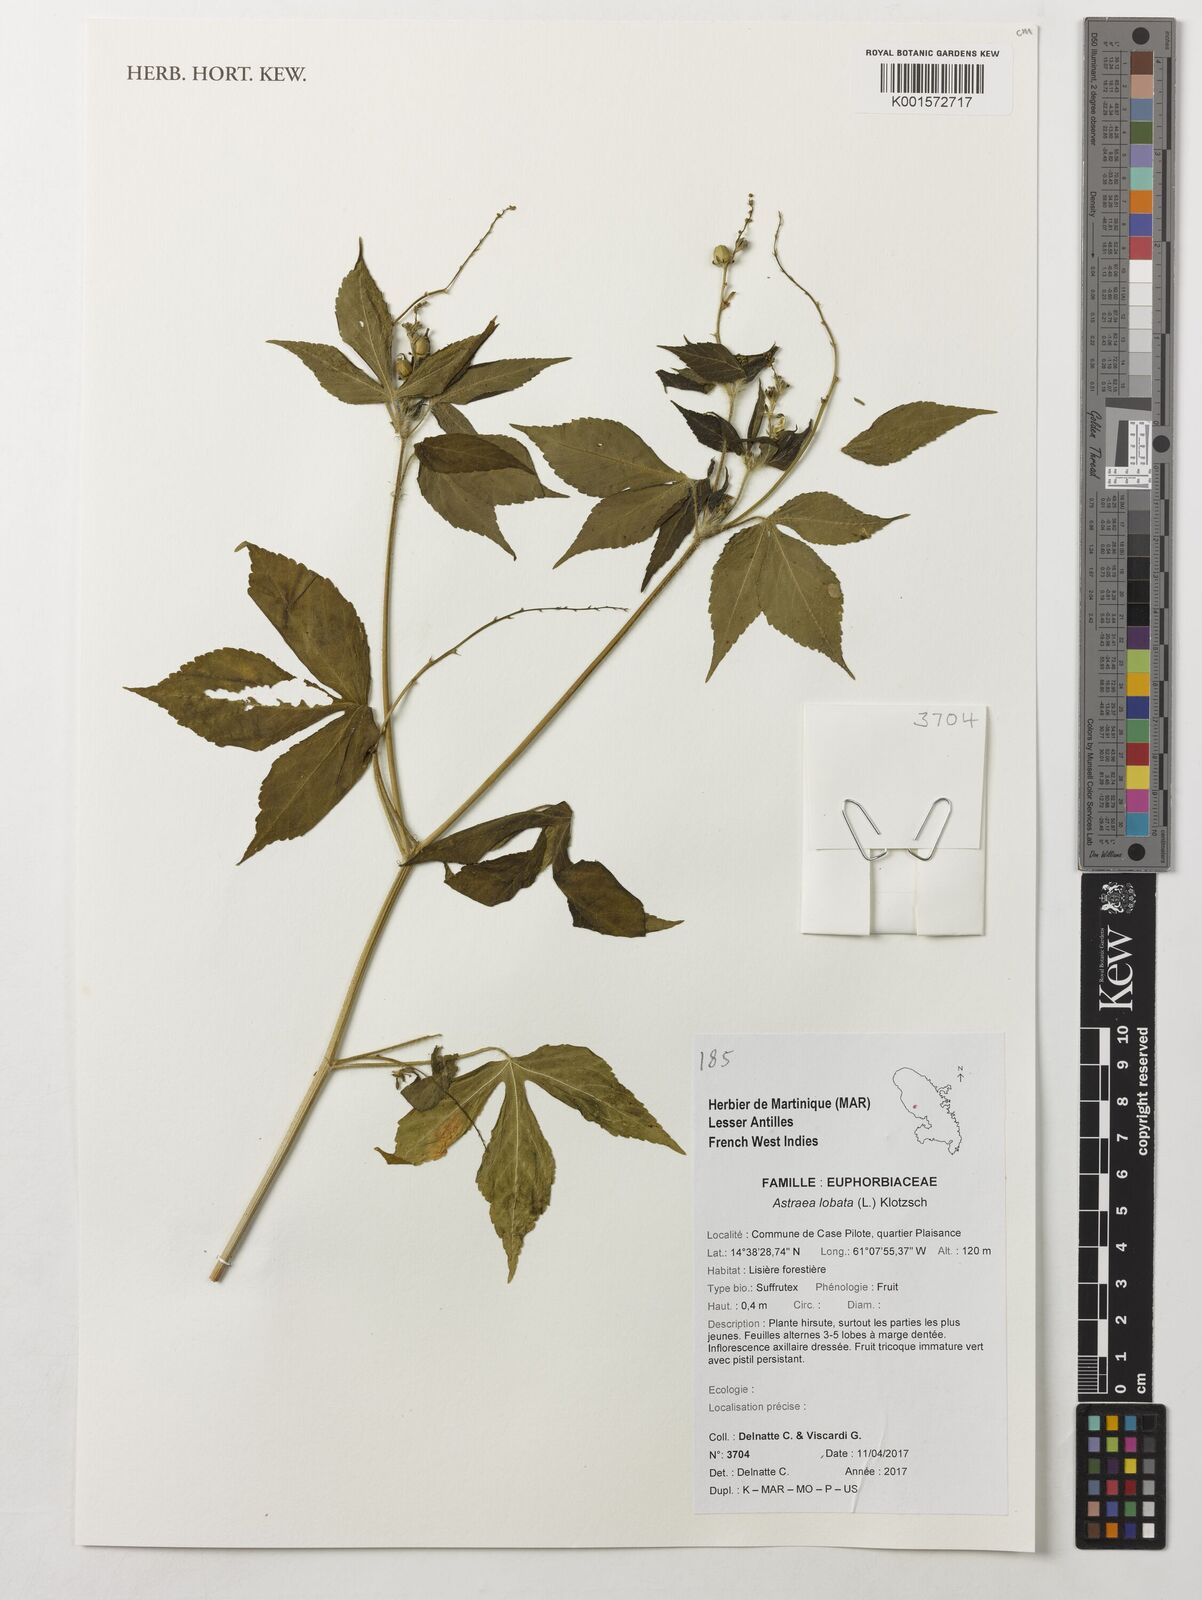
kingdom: Plantae
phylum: Tracheophyta
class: Magnoliopsida
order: Malpighiales
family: Euphorbiaceae
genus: Astraea
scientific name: Astraea lobata
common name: Lobed croton
